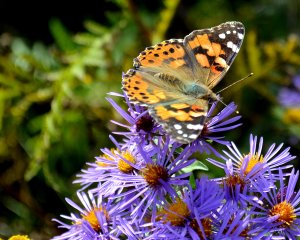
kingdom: Animalia
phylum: Arthropoda
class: Insecta
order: Lepidoptera
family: Nymphalidae
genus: Vanessa
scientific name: Vanessa cardui
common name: Painted Lady
